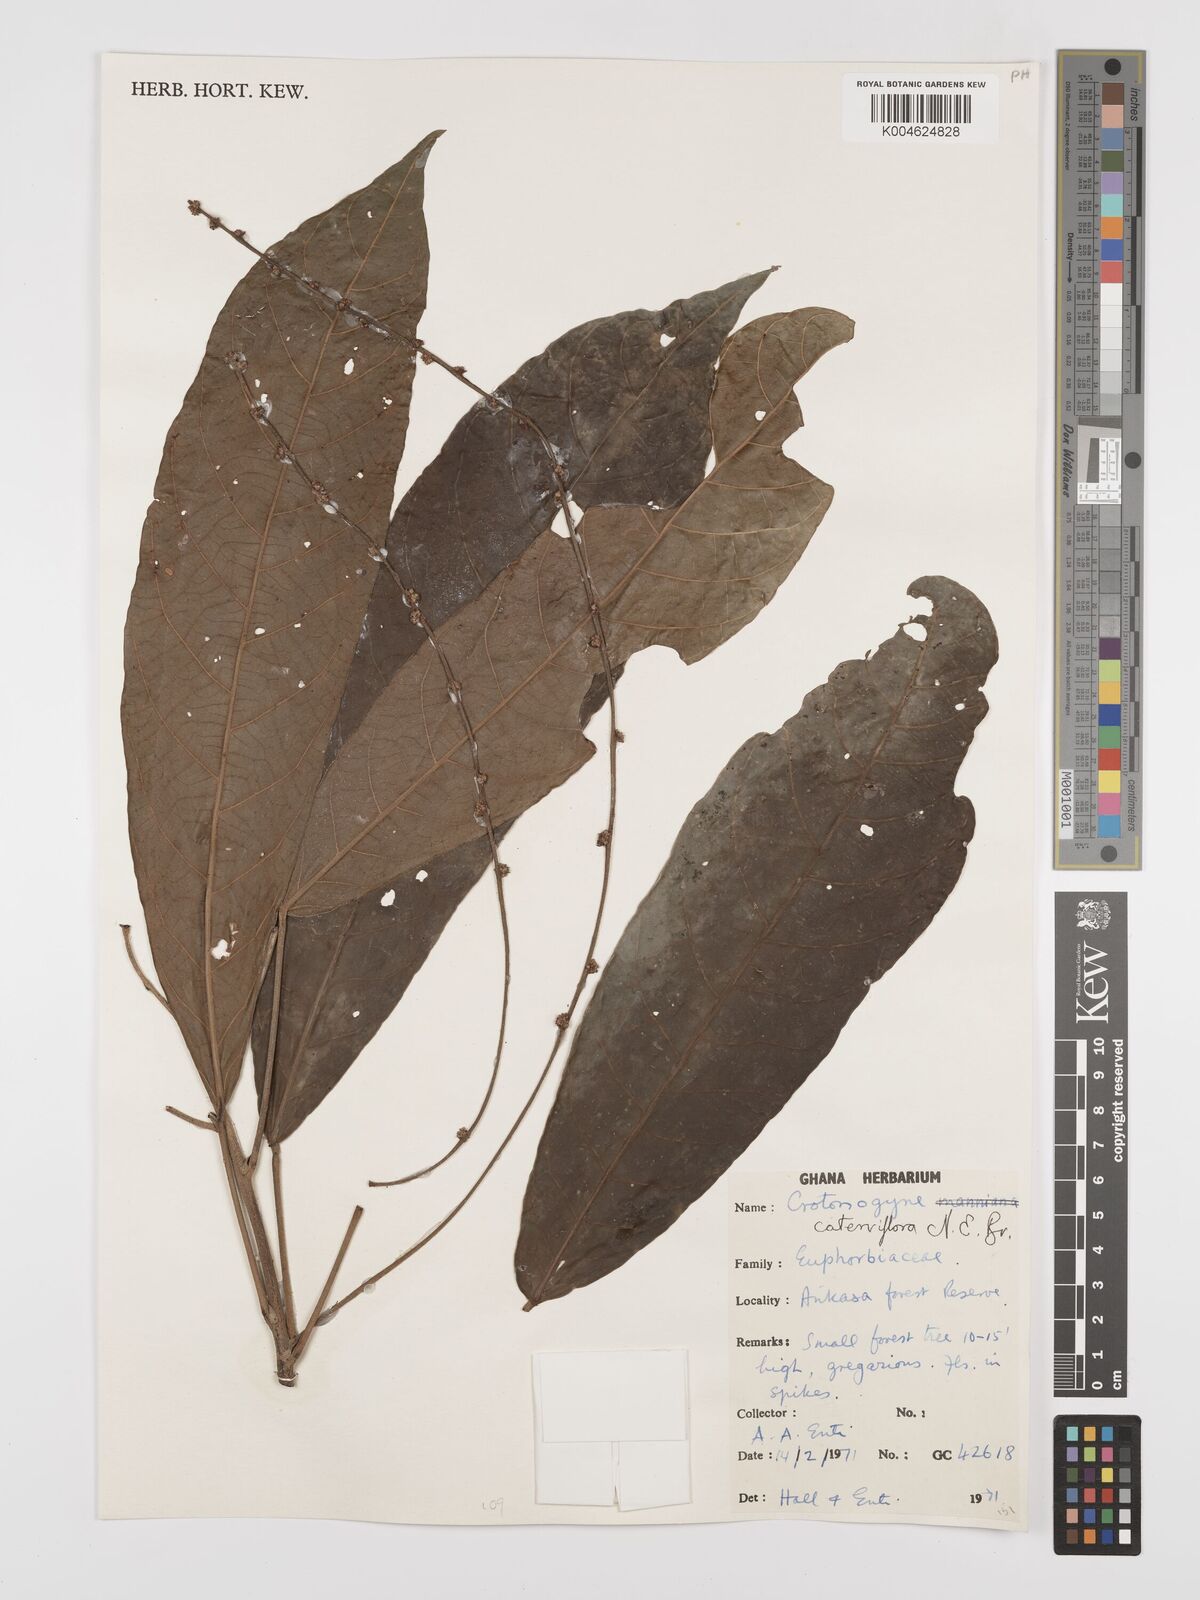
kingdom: Plantae
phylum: Tracheophyta
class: Magnoliopsida
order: Malpighiales
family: Euphorbiaceae
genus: Crotonogyne
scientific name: Crotonogyne caterviflora
